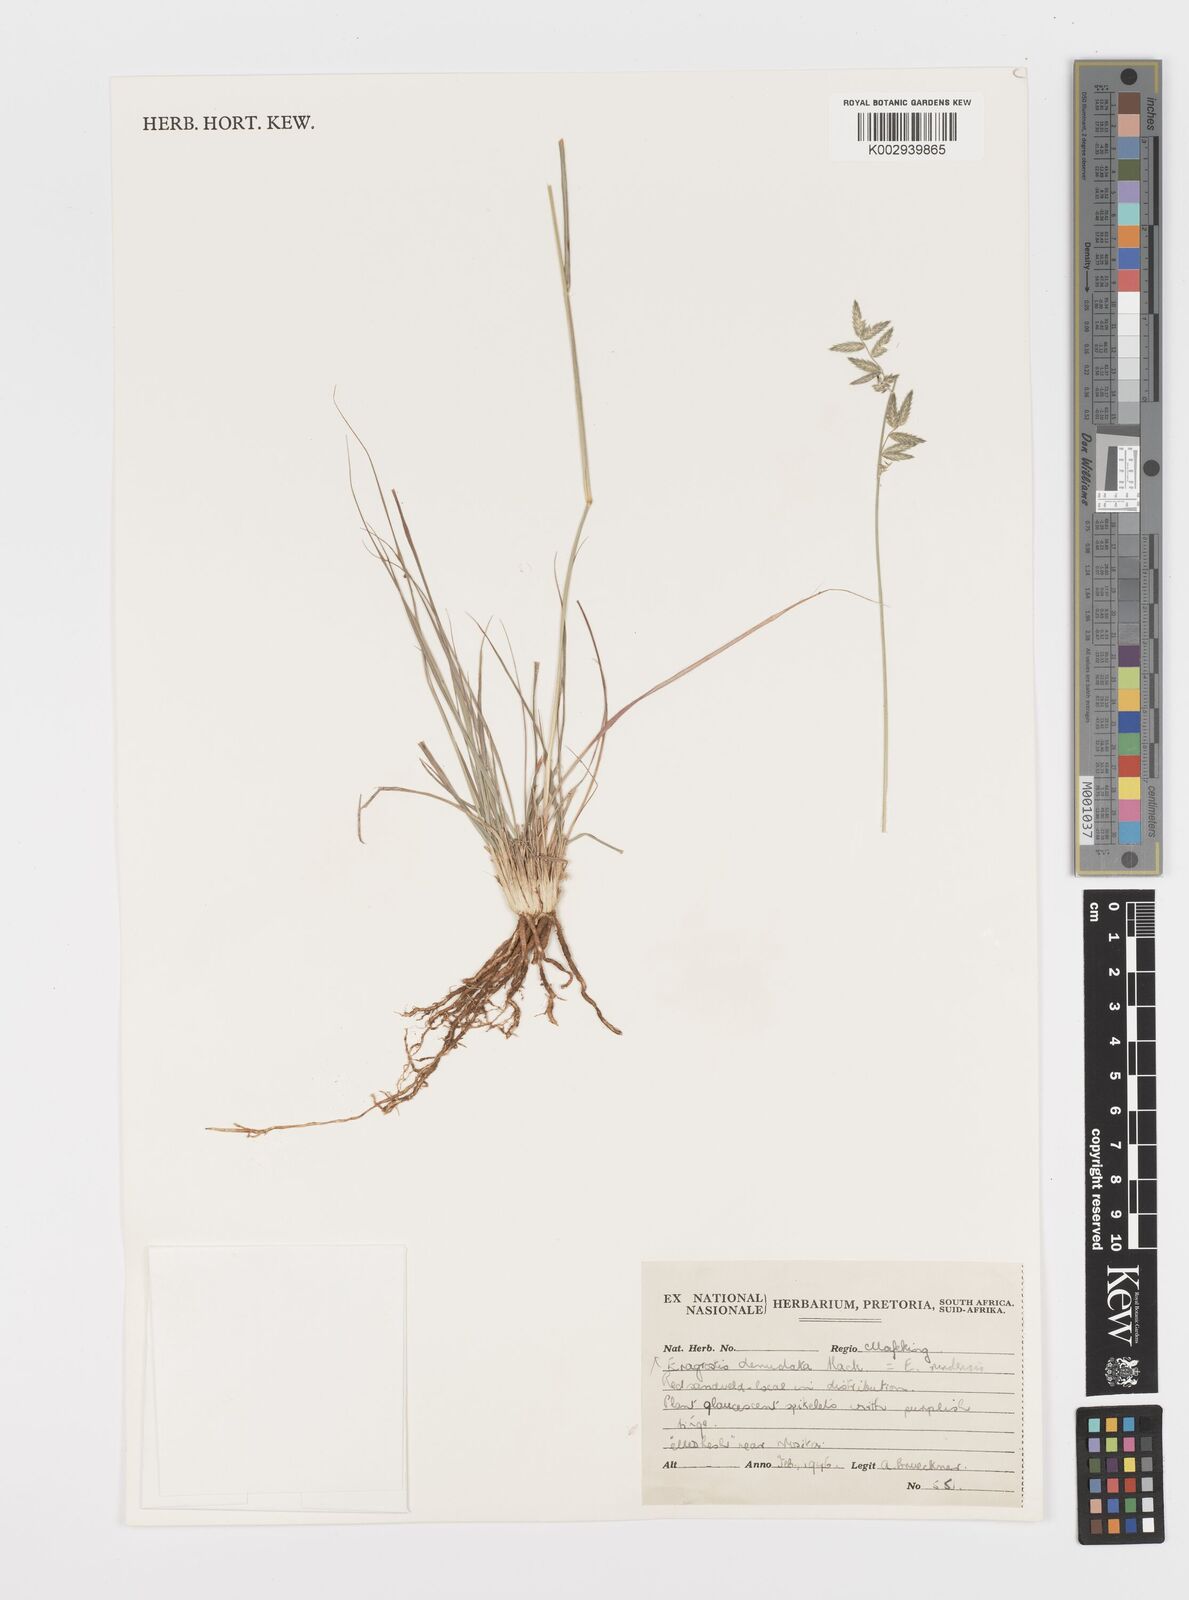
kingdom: Plantae
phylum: Tracheophyta
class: Liliopsida
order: Poales
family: Poaceae
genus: Eragrostis
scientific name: Eragrostis nindensis
